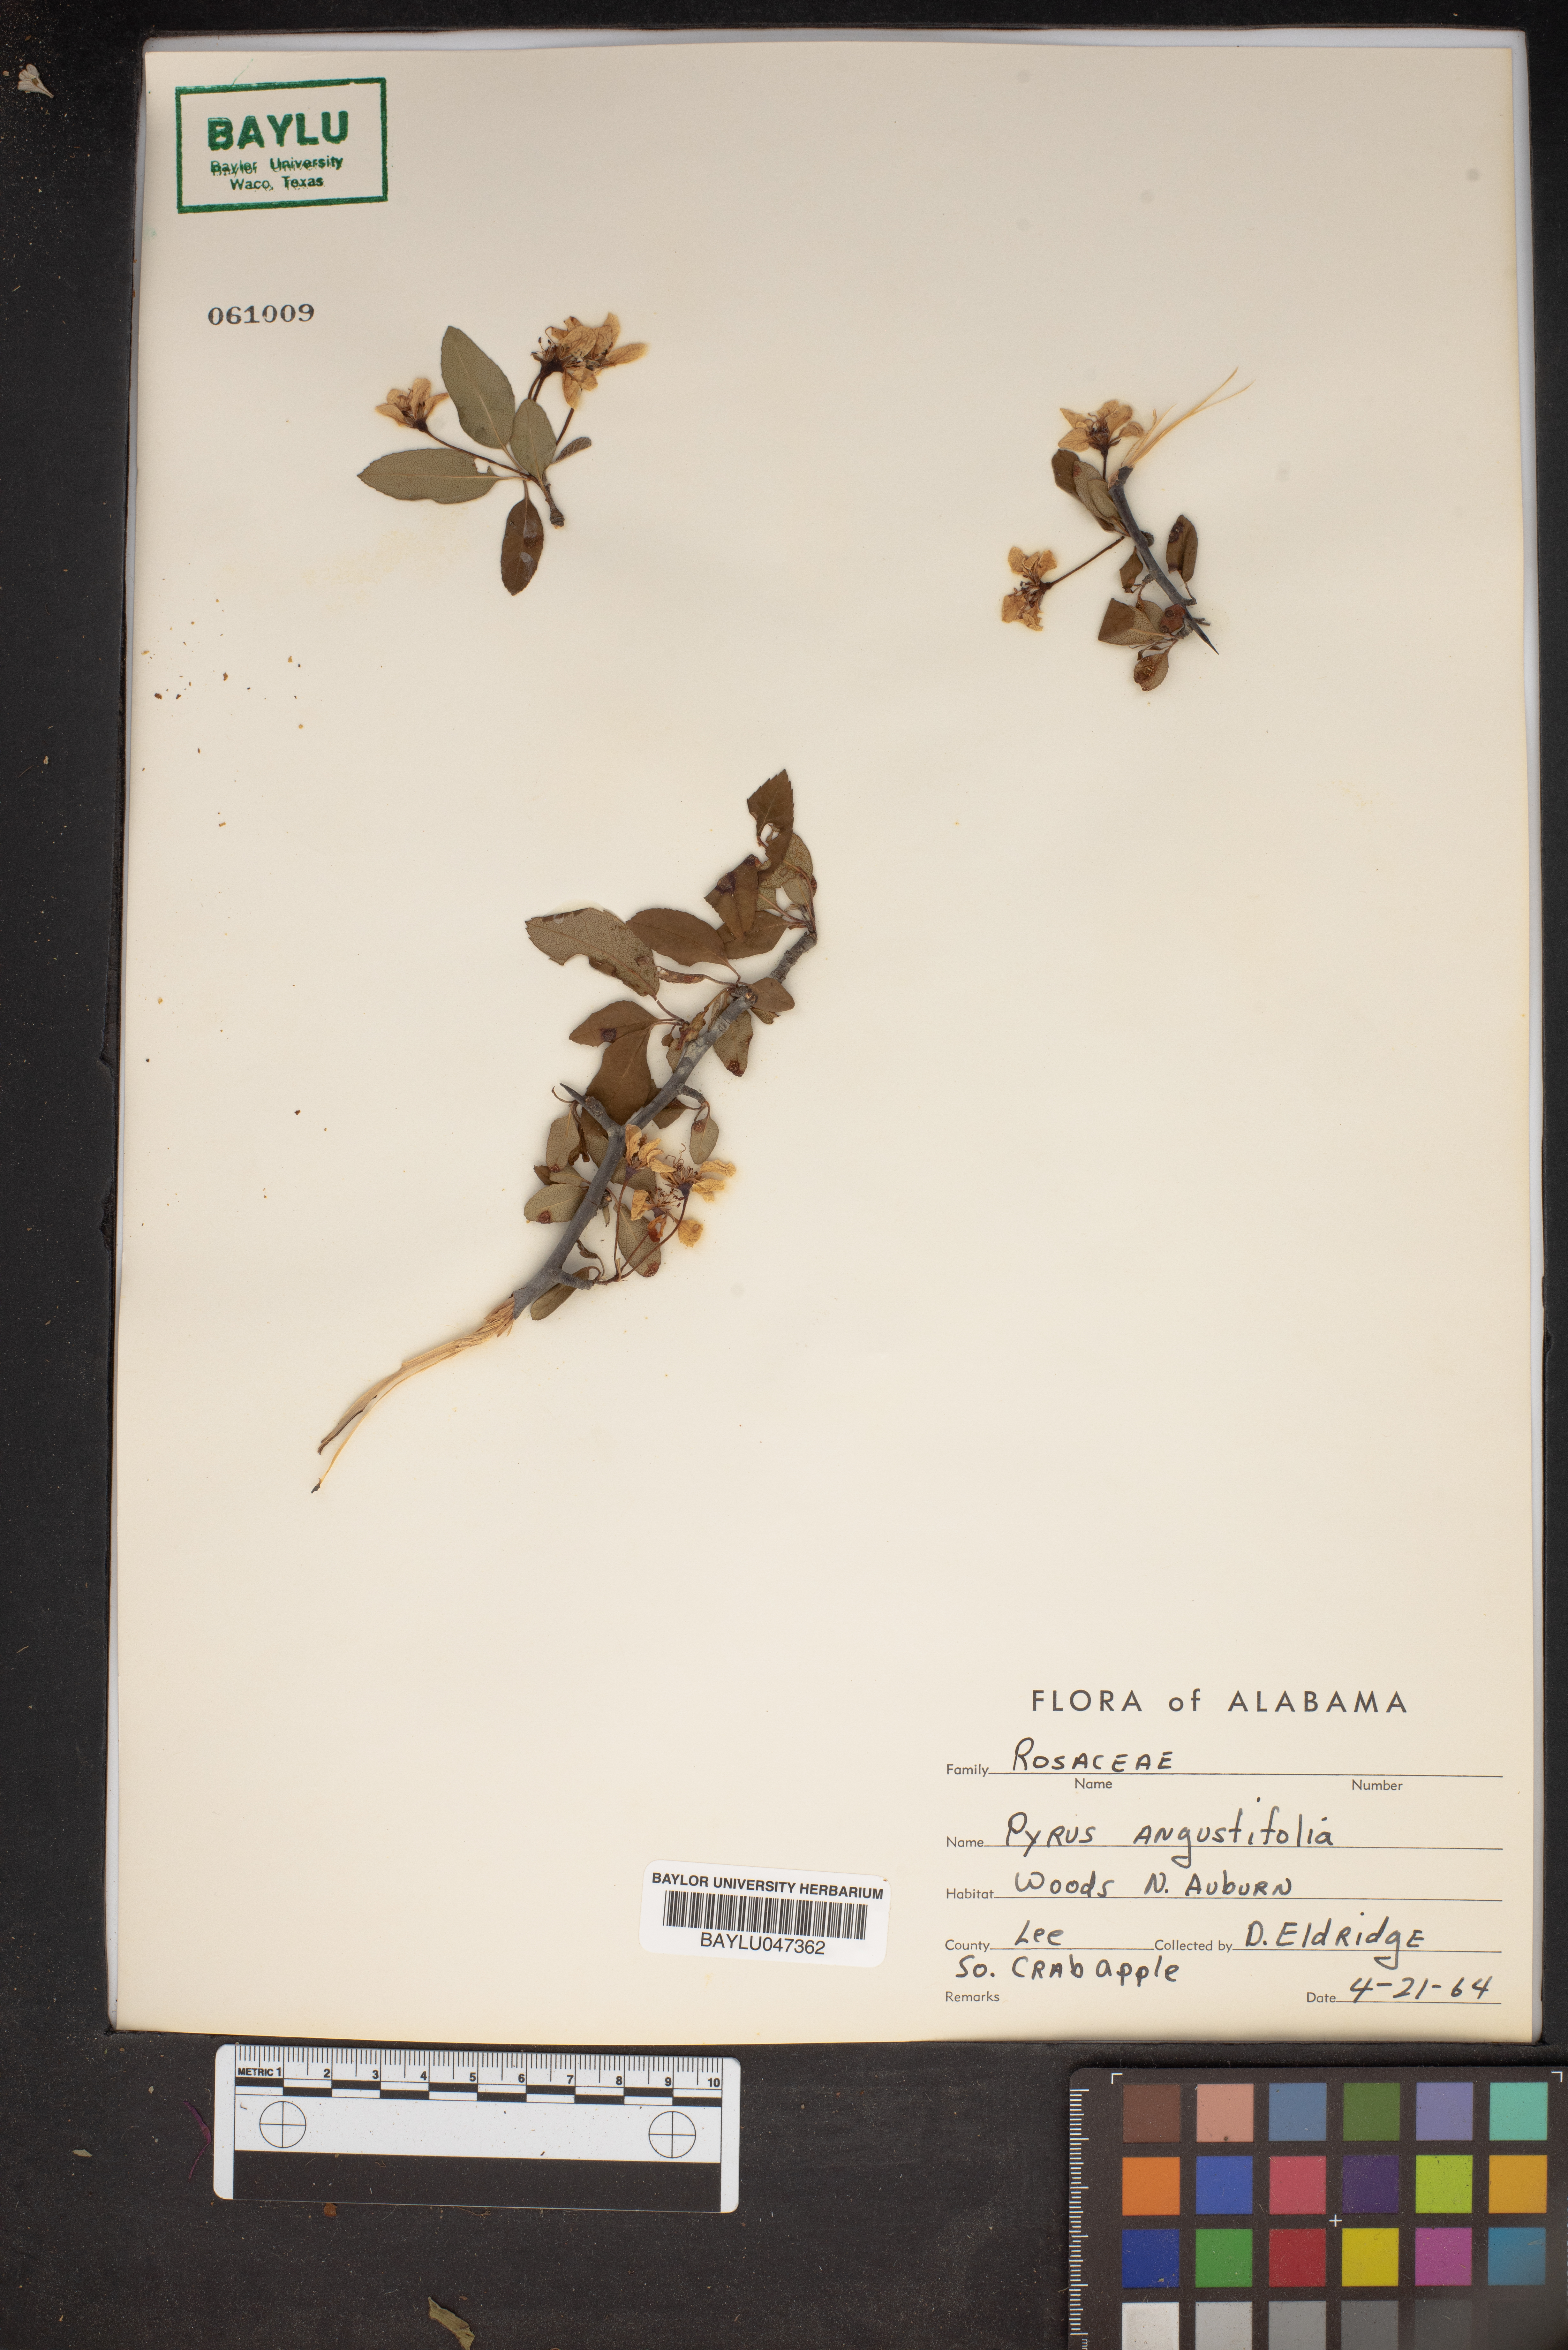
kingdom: Plantae
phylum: Tracheophyta
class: Magnoliopsida
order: Rosales
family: Rosaceae
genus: Malus
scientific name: Malus angustifolia
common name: Southern crab apple
